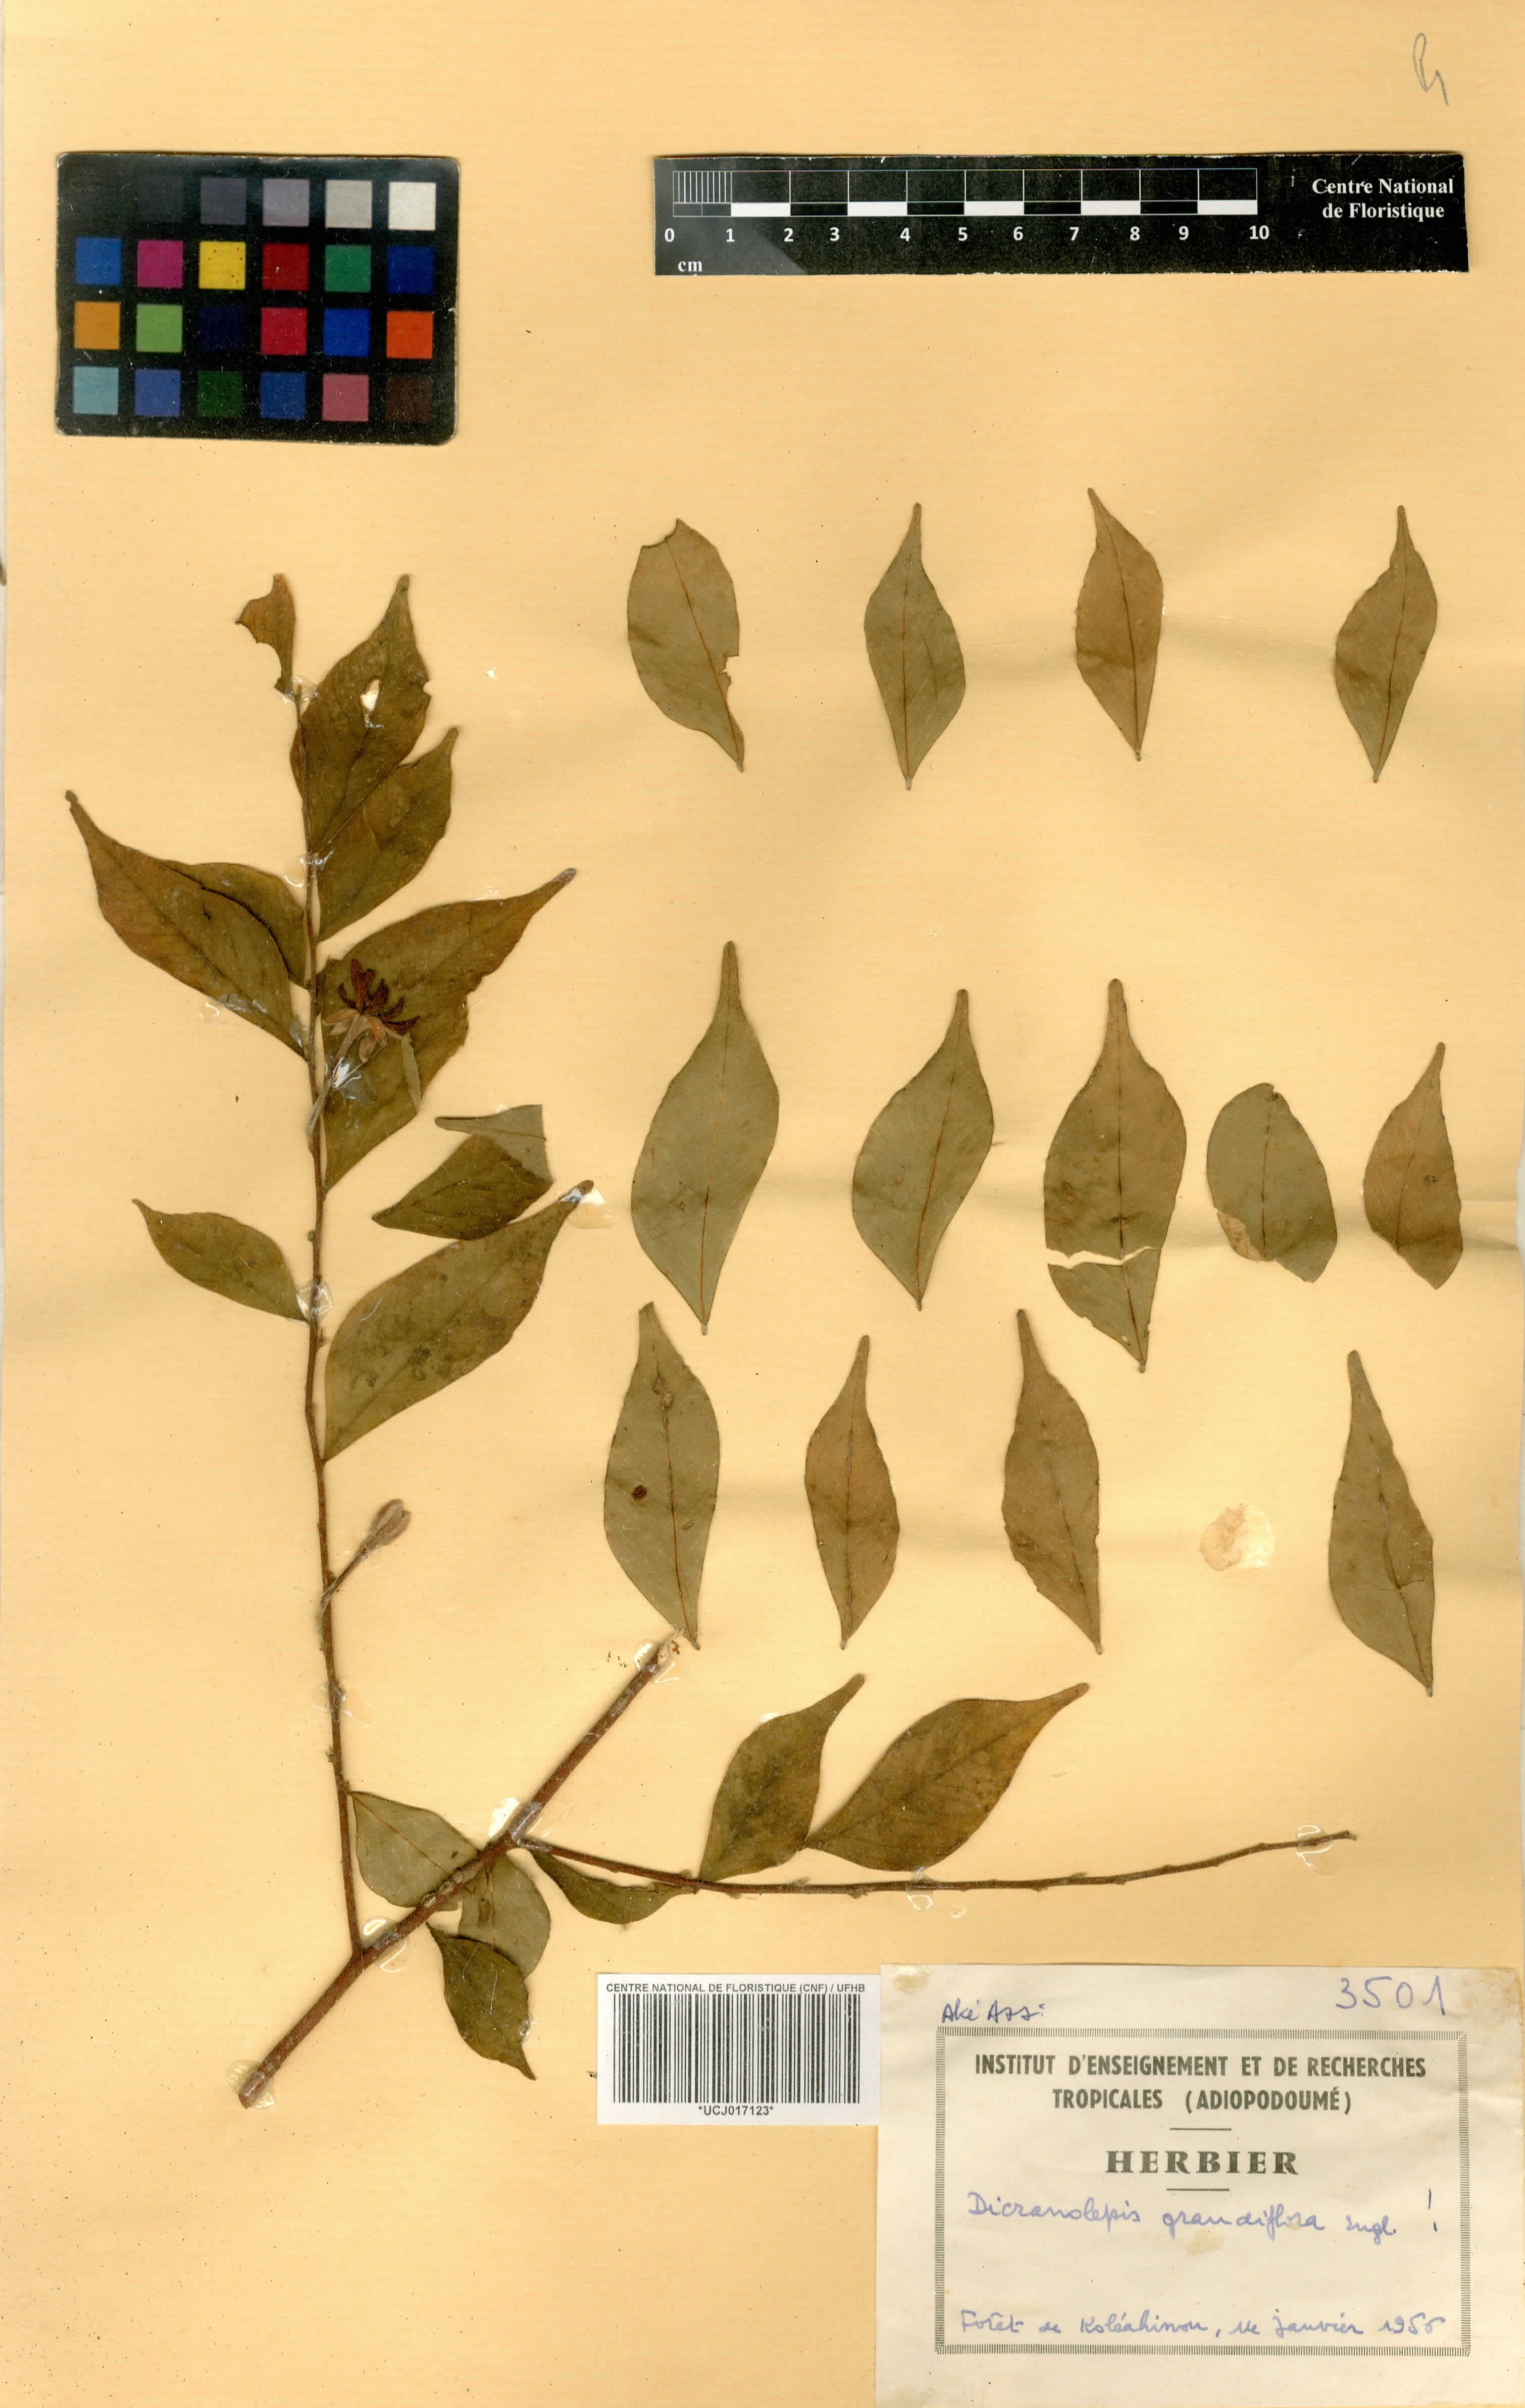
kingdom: Plantae
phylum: Tracheophyta
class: Magnoliopsida
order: Malvales
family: Thymelaeaceae
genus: Dicranolepis
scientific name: Dicranolepis grandiflora
